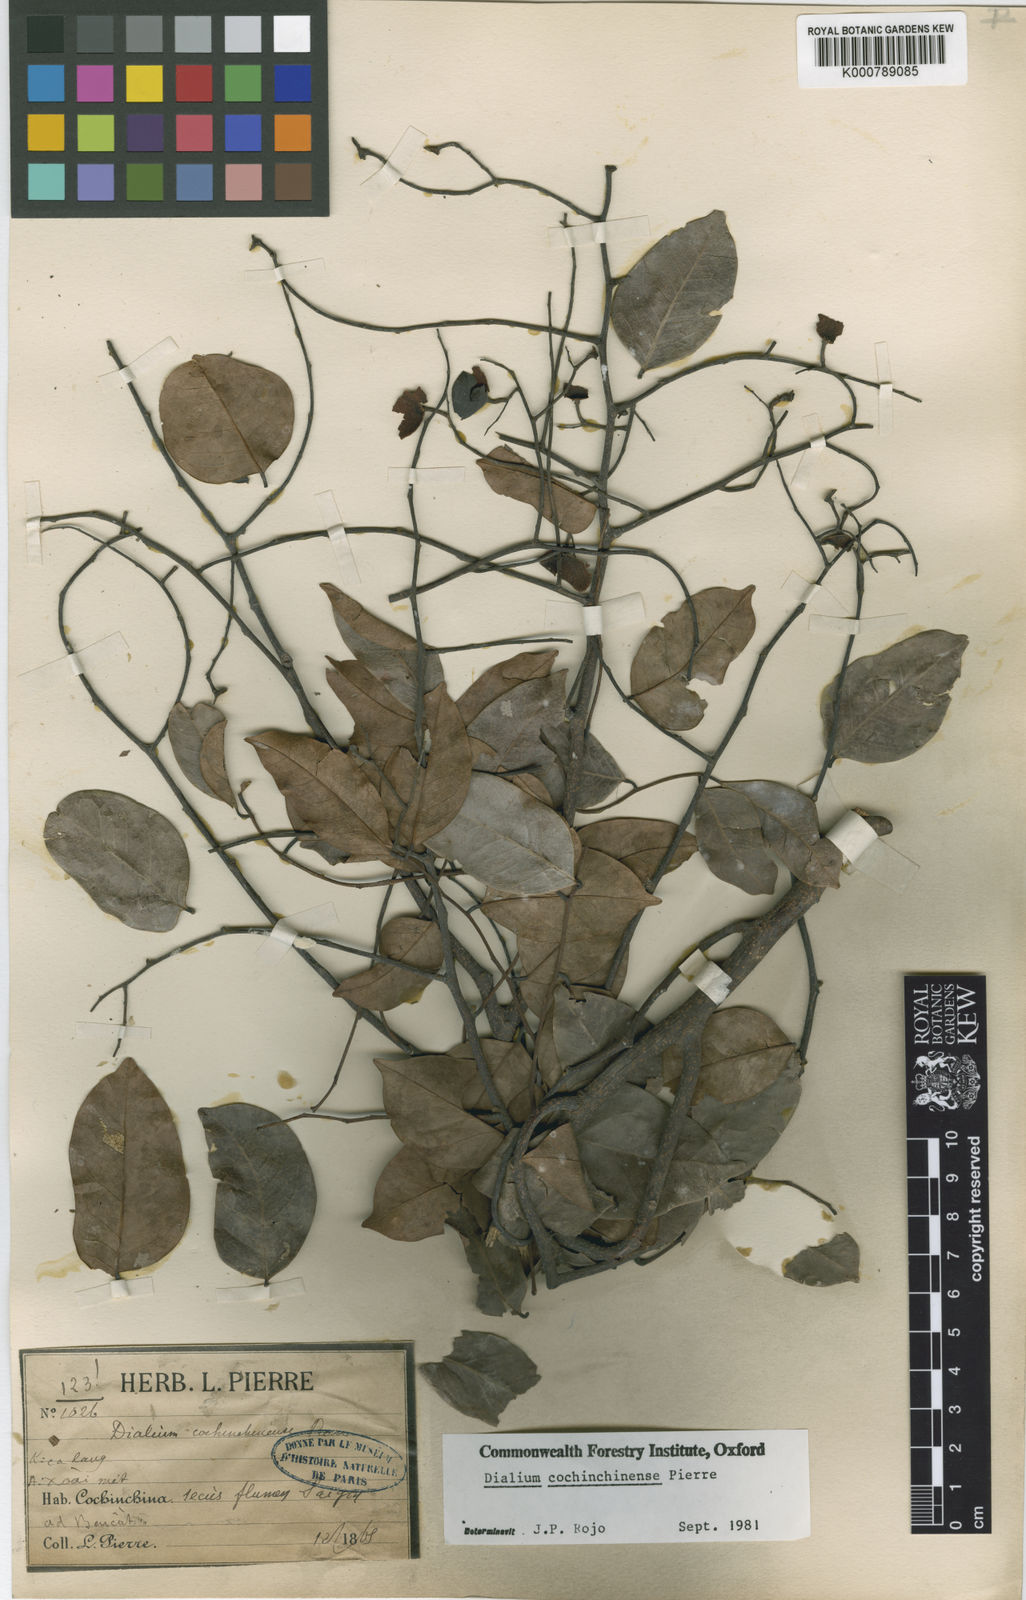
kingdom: Plantae
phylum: Tracheophyta
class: Magnoliopsida
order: Fabales
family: Fabaceae
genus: Dialium
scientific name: Dialium cochinchinense
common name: Velvet tamarind
